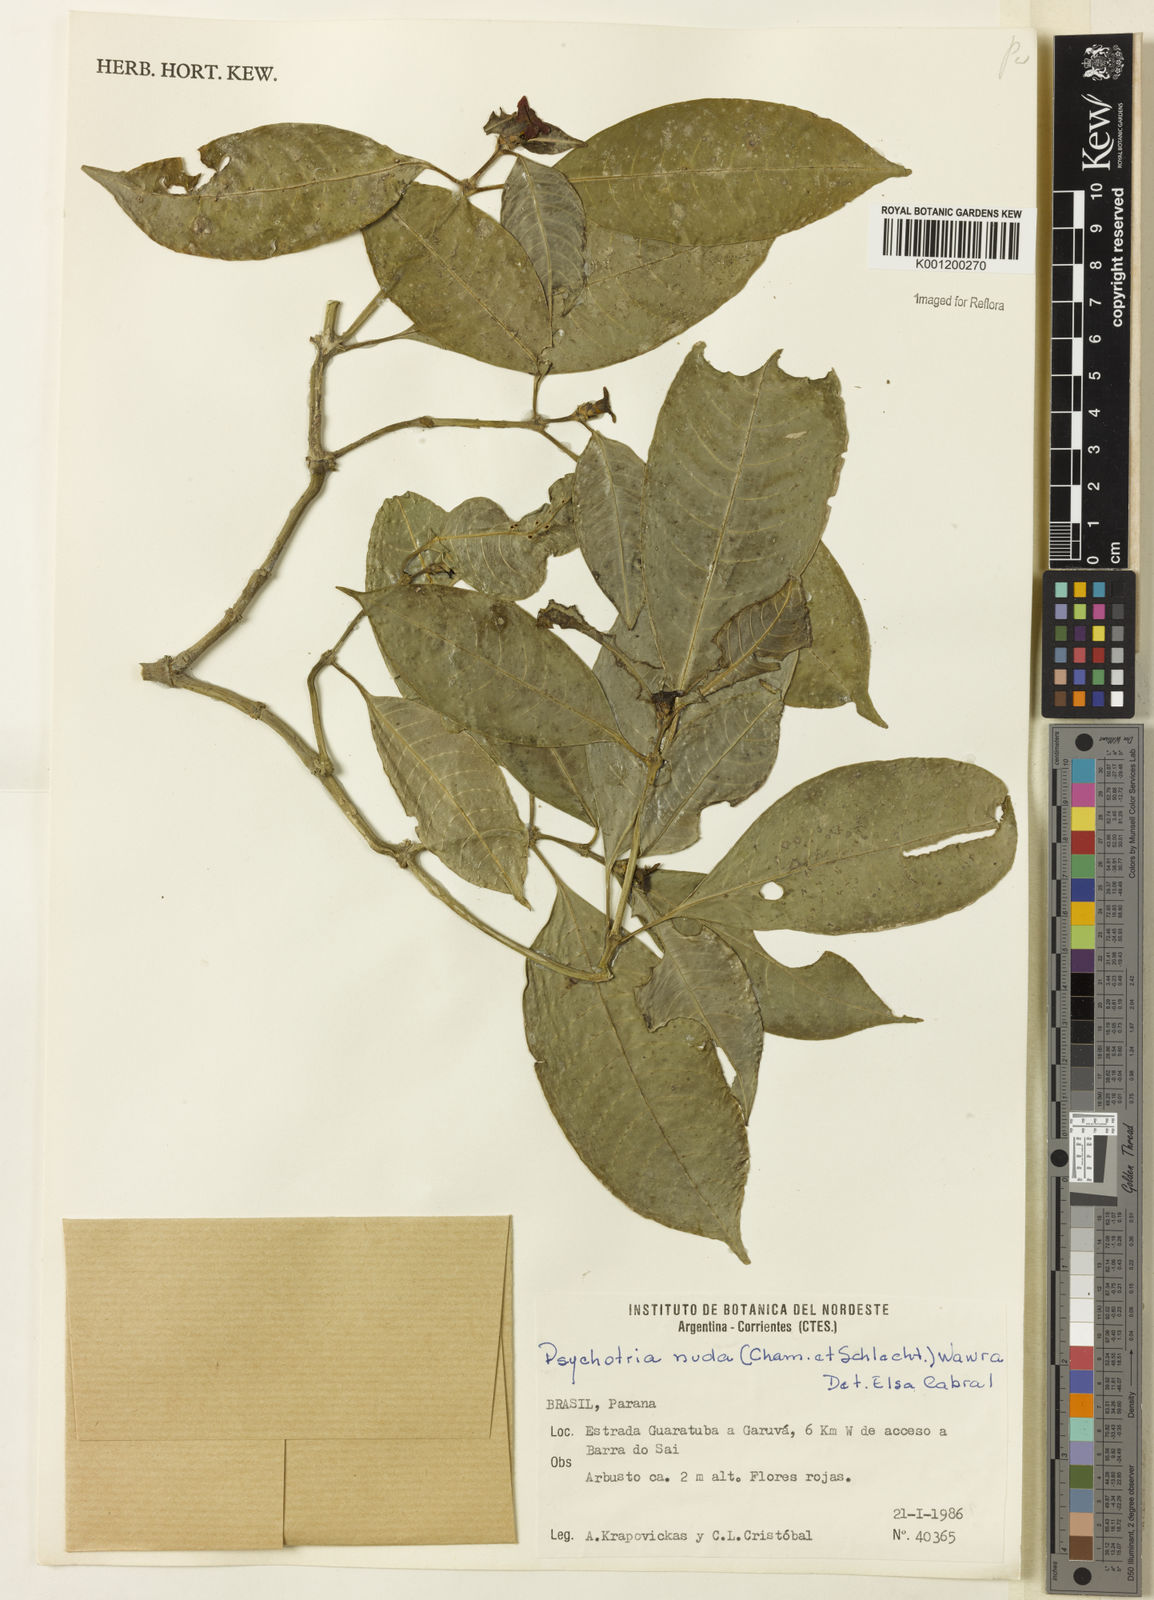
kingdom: Plantae
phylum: Tracheophyta
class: Magnoliopsida
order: Gentianales
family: Rubiaceae
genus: Psychotria
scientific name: Psychotria nuda
